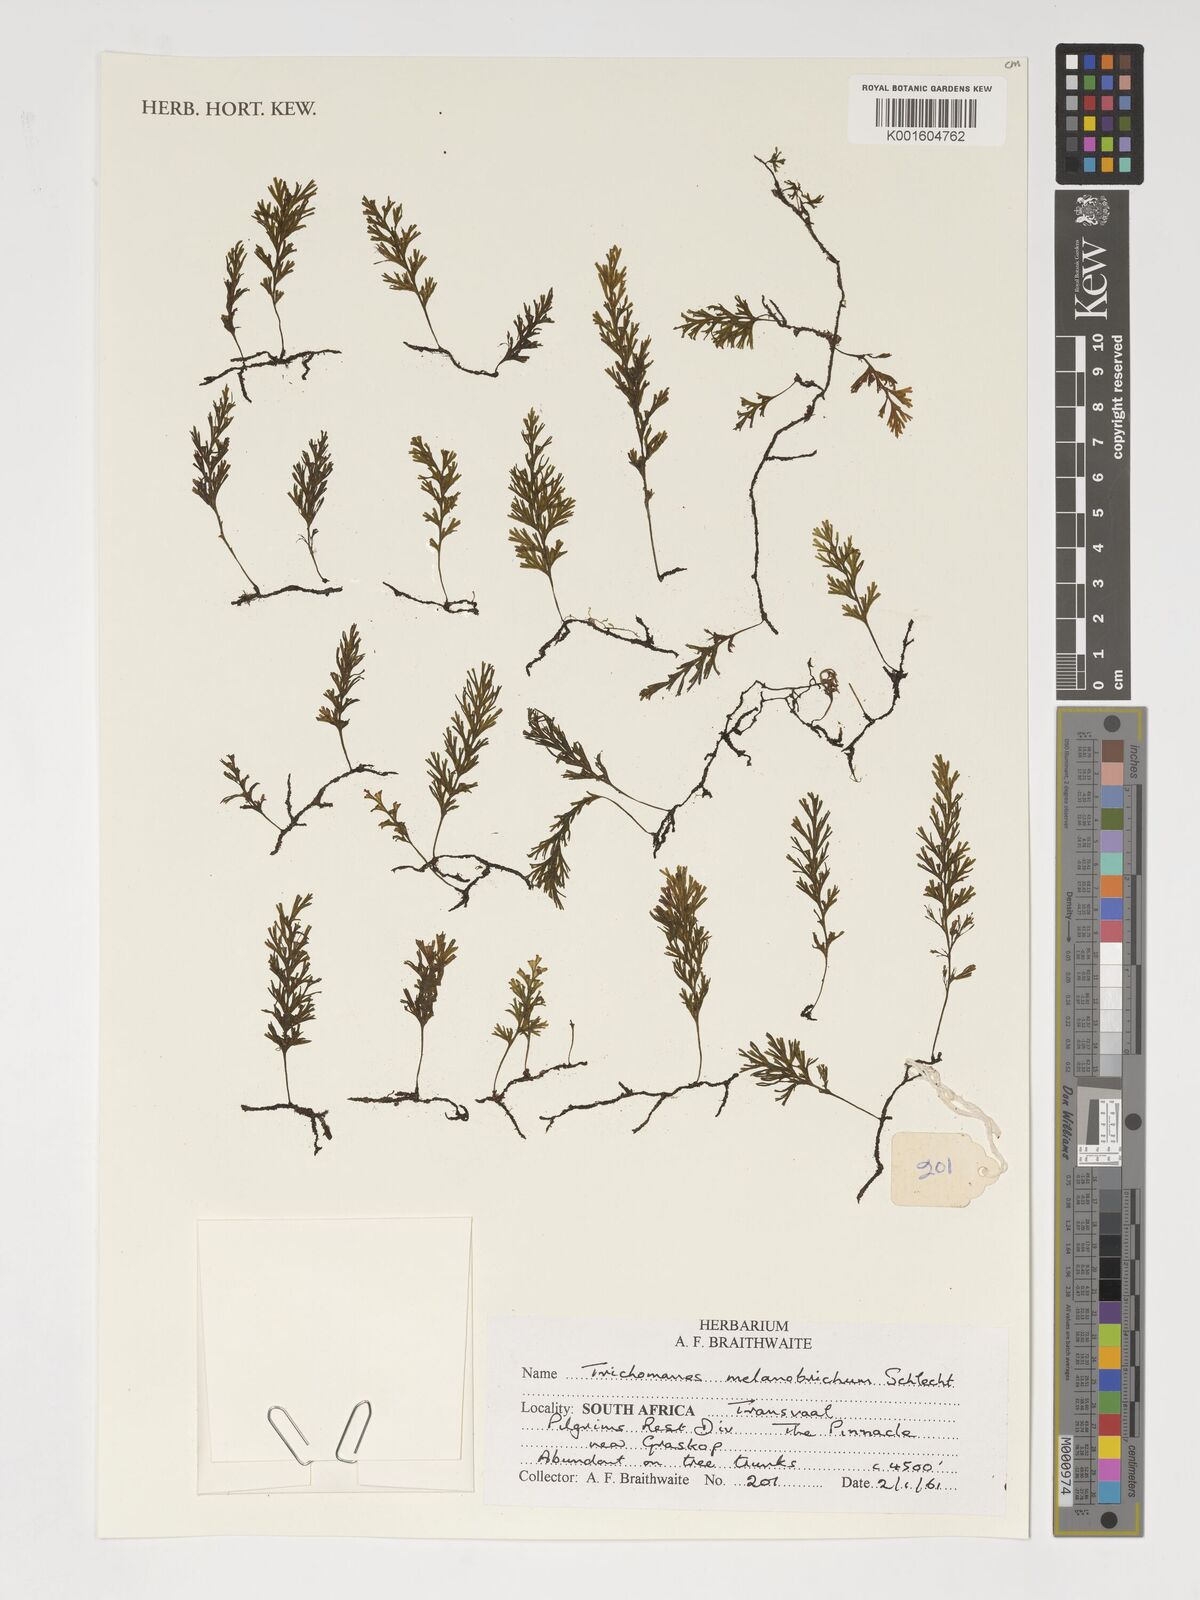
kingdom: Plantae
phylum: Tracheophyta
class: Polypodiopsida
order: Hymenophyllales
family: Hymenophyllaceae
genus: Crepidomanes
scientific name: Crepidomanes melanotrichum
